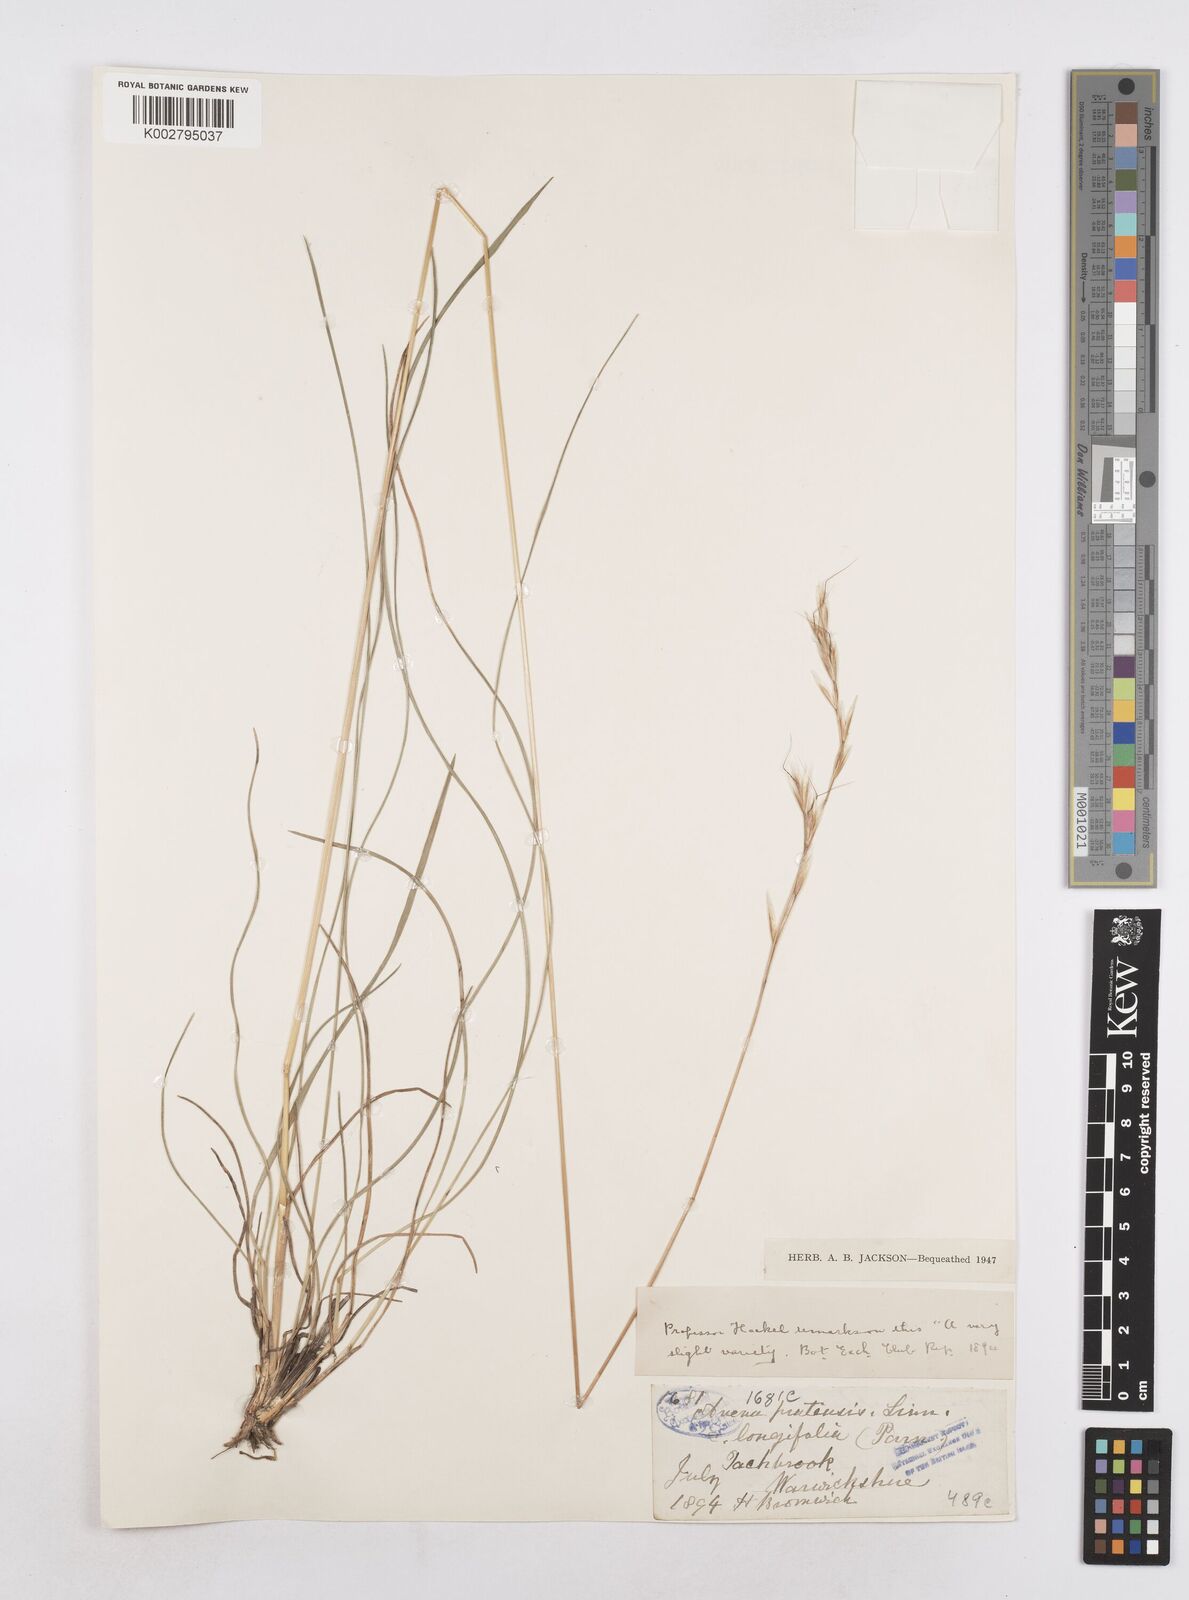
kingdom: Plantae
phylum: Tracheophyta
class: Liliopsida
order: Poales
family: Poaceae
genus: Helictochloa
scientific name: Helictochloa pratensis
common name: Meadow oat grass
